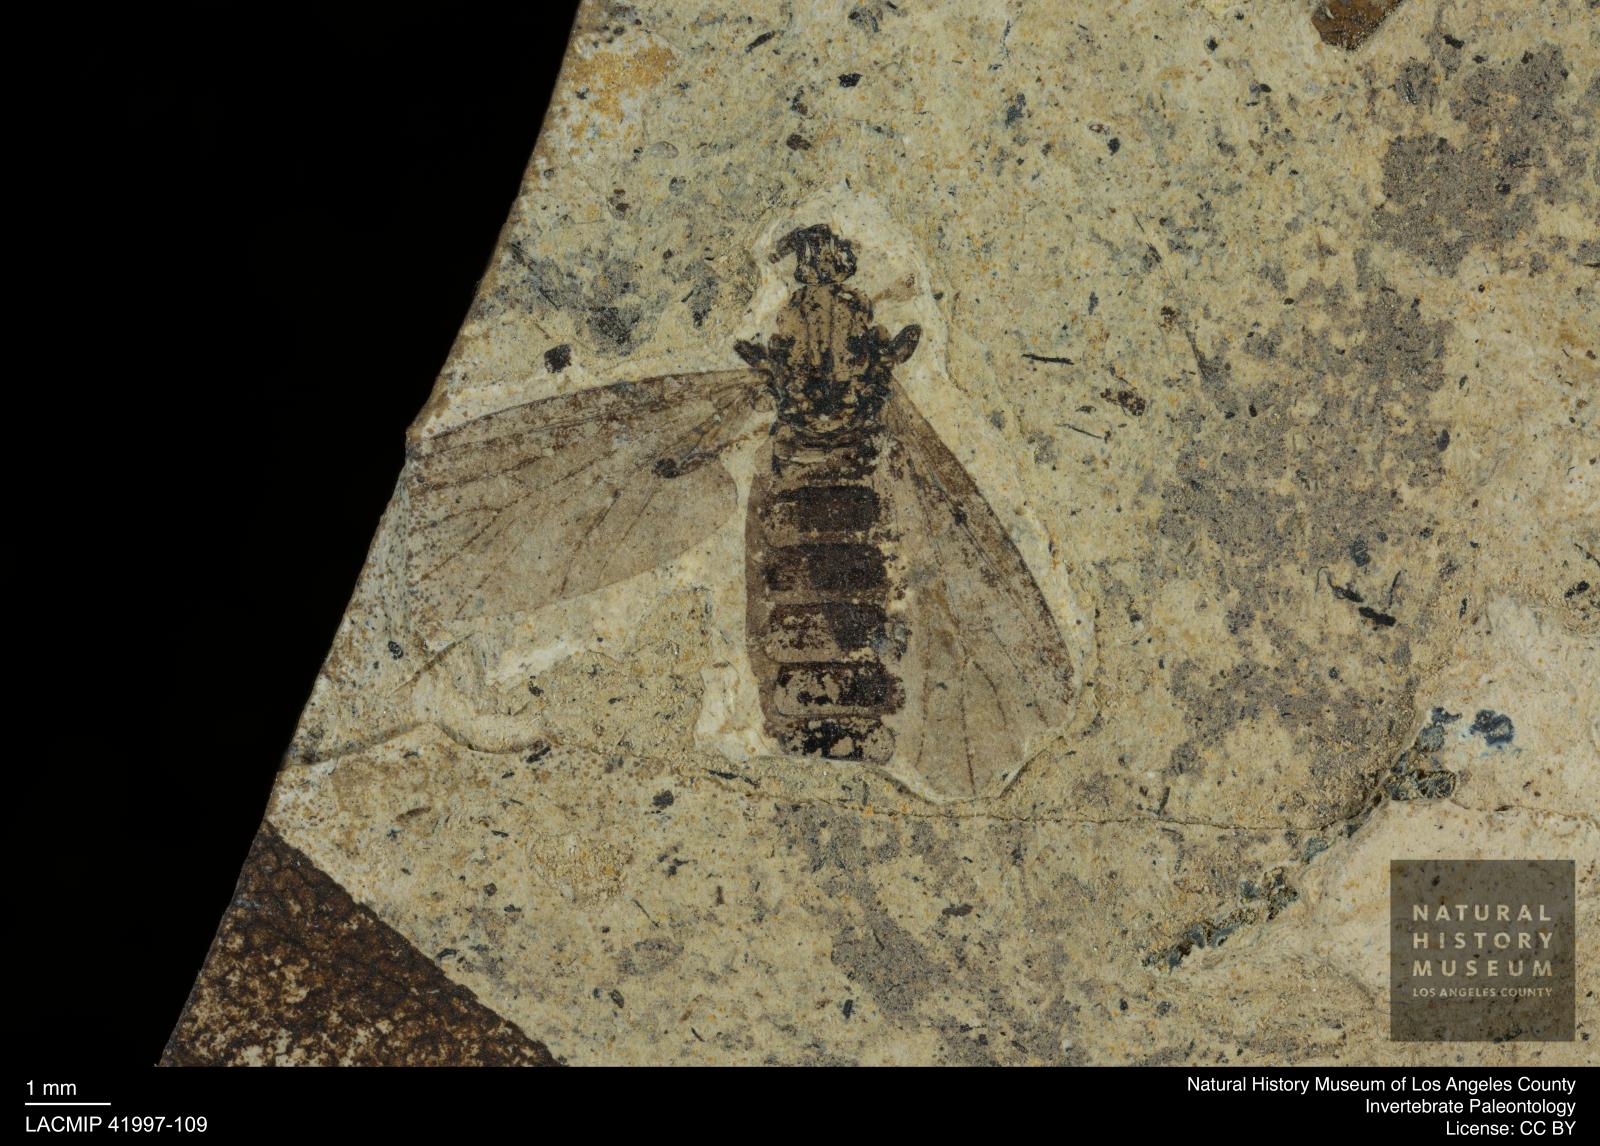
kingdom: Animalia
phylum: Arthropoda
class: Insecta
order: Diptera
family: Bibionidae
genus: Plecia
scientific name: Plecia stygia
